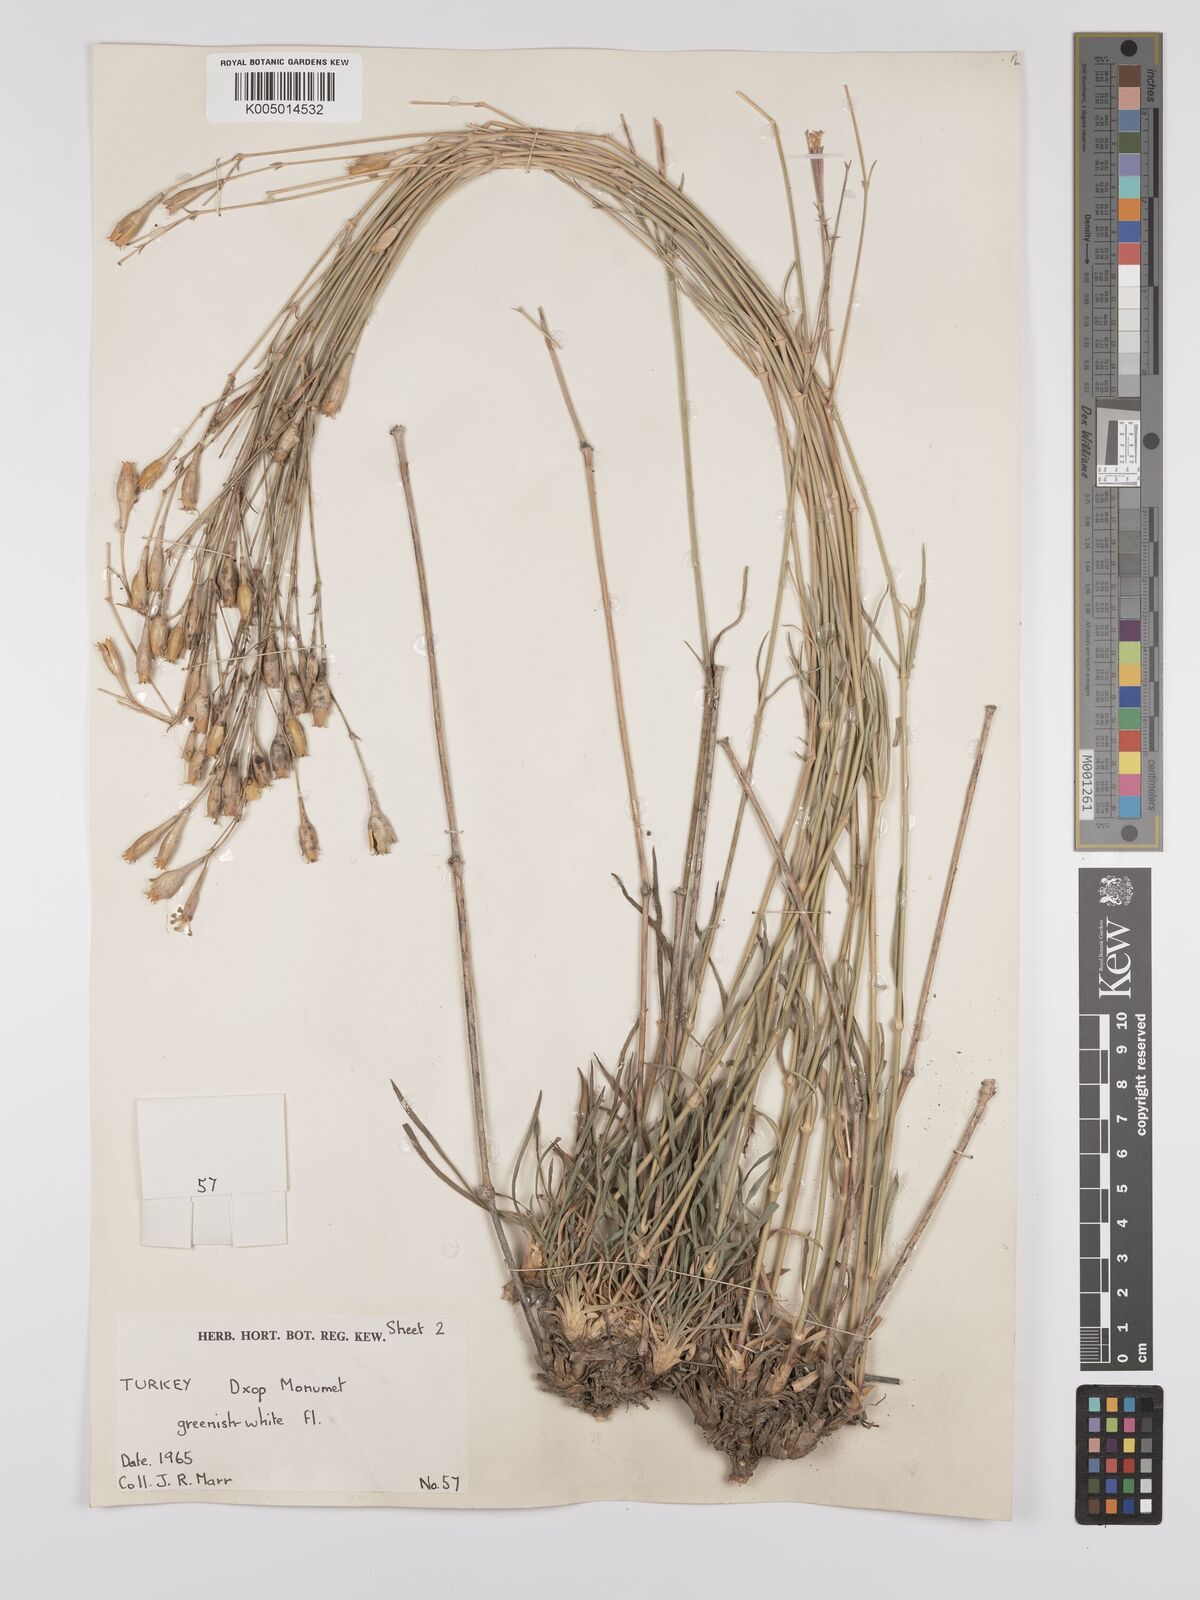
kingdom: Plantae
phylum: Tracheophyta
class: Magnoliopsida
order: Caryophyllales
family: Caryophyllaceae
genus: Silene
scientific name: Silene
